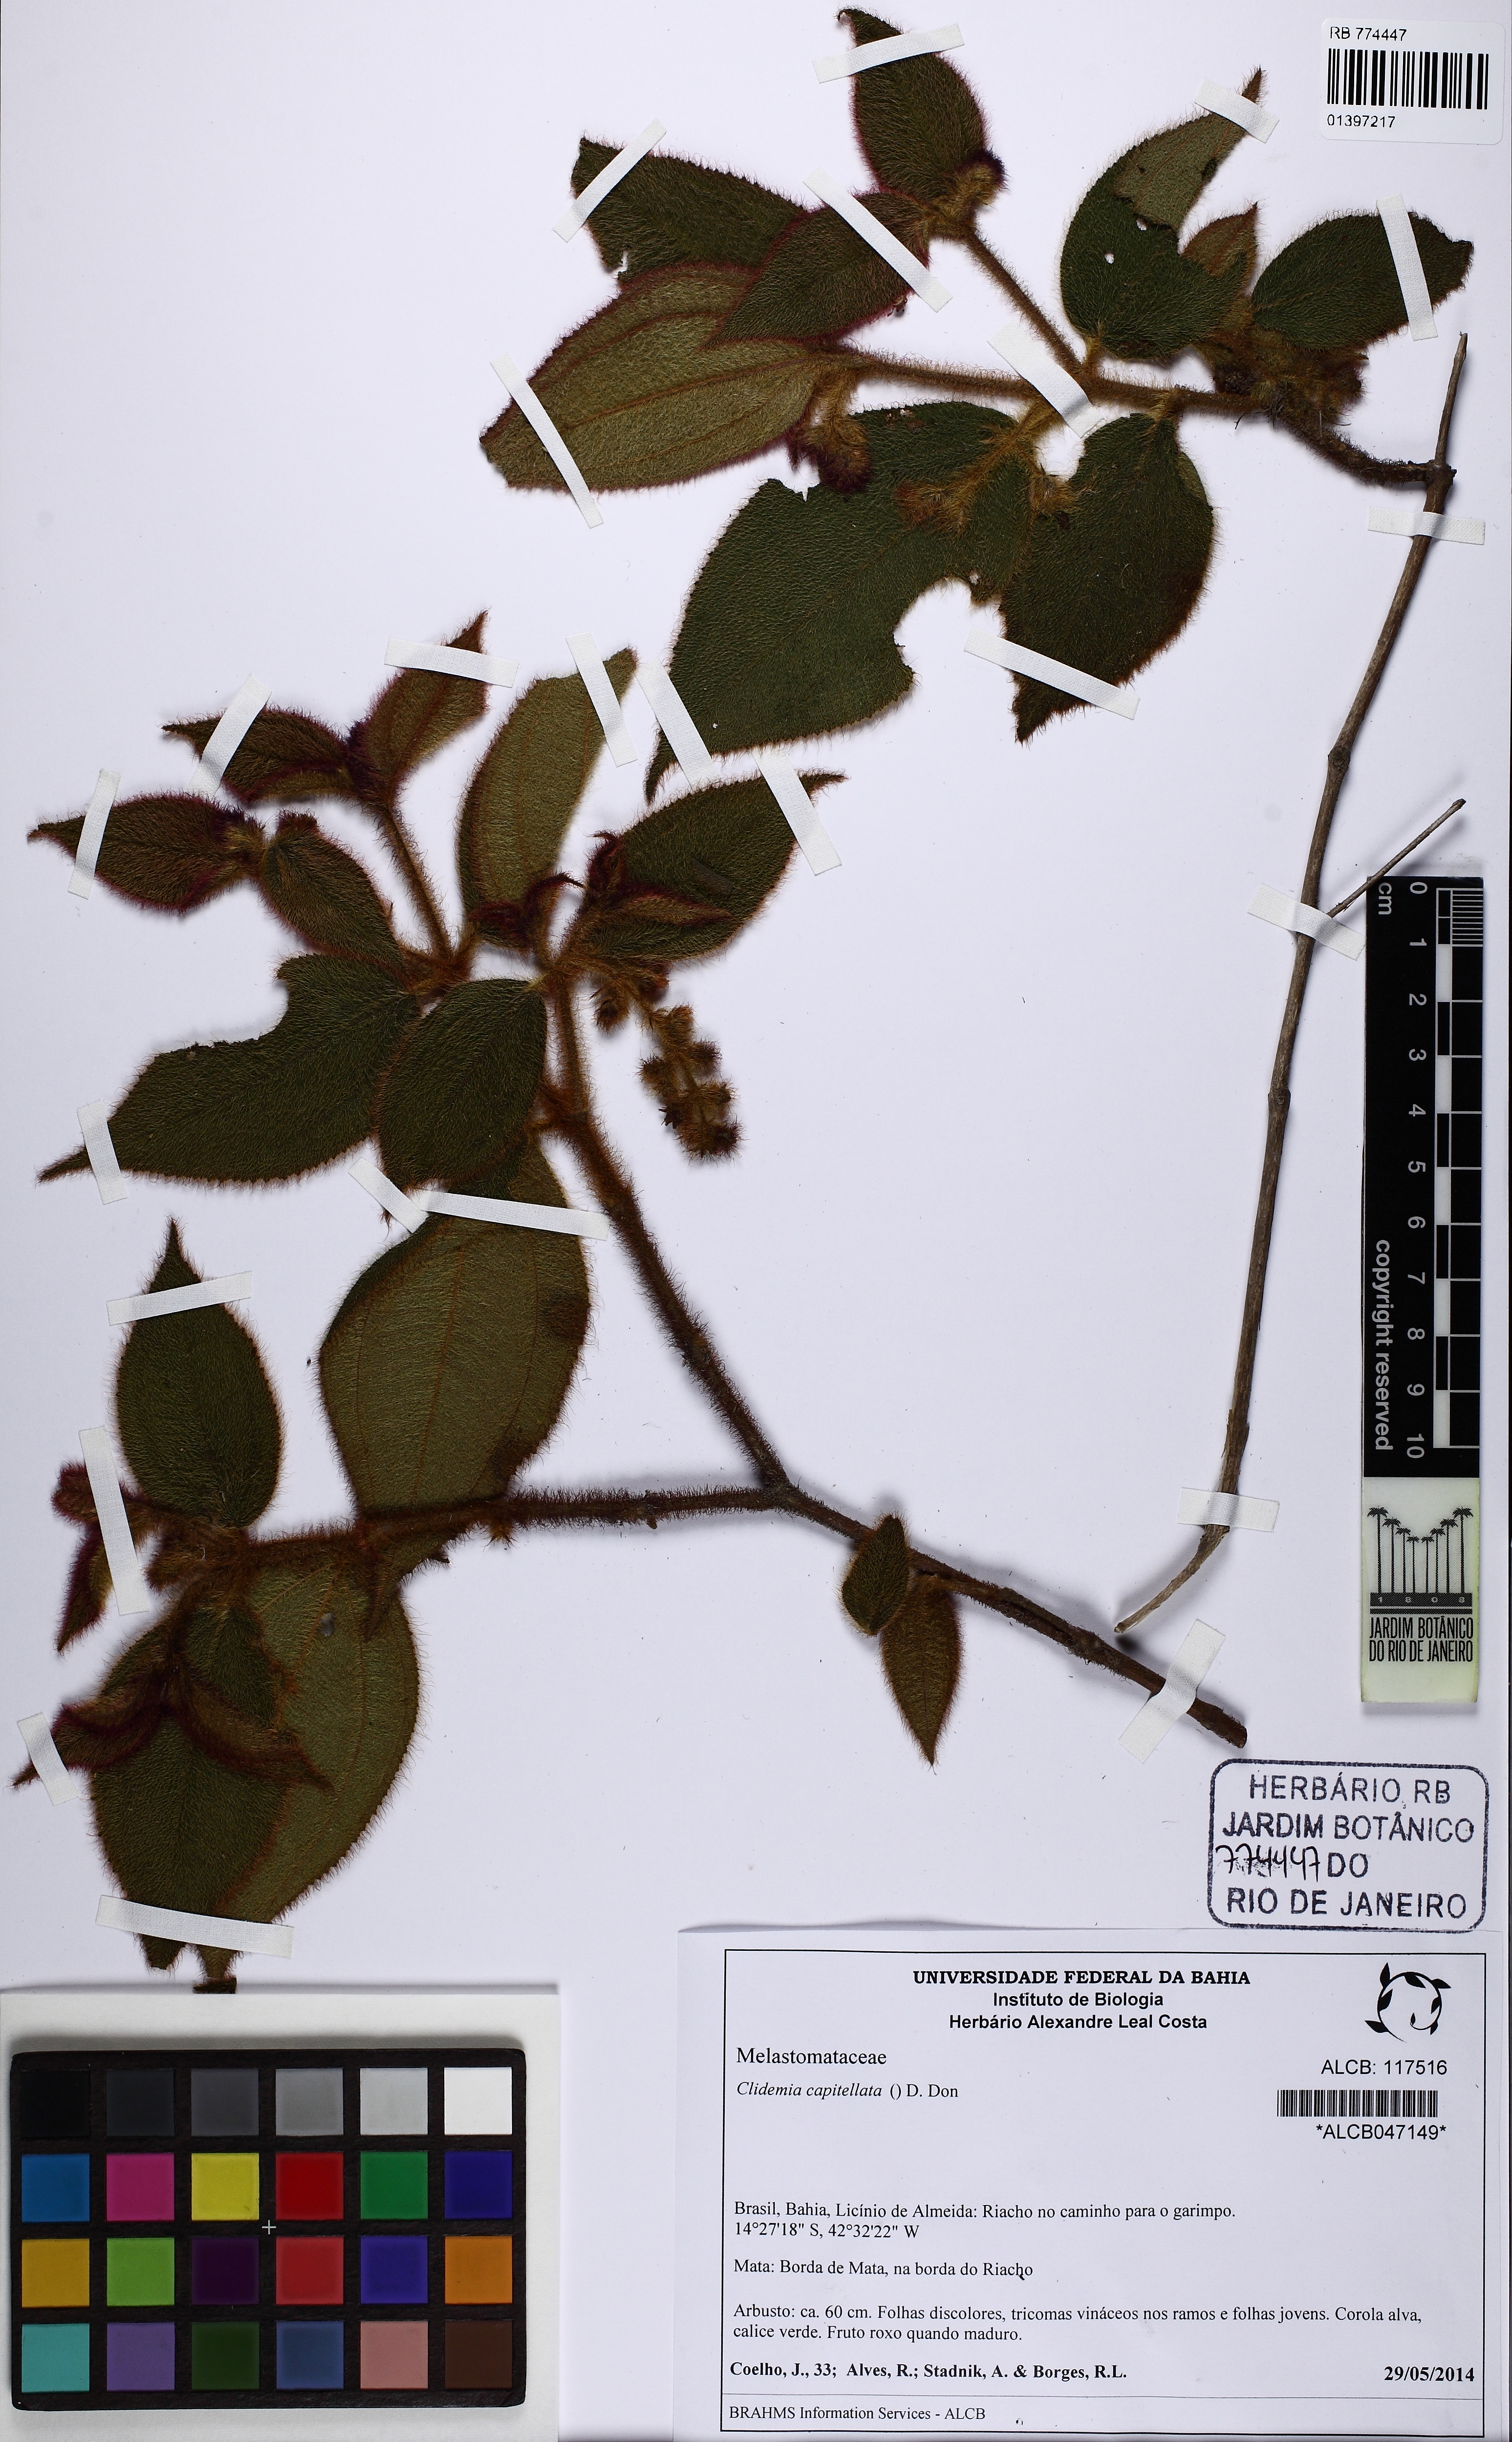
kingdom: Plantae
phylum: Tracheophyta
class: Magnoliopsida
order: Myrtales
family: Melastomataceae
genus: Miconia
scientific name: Miconia dependens
